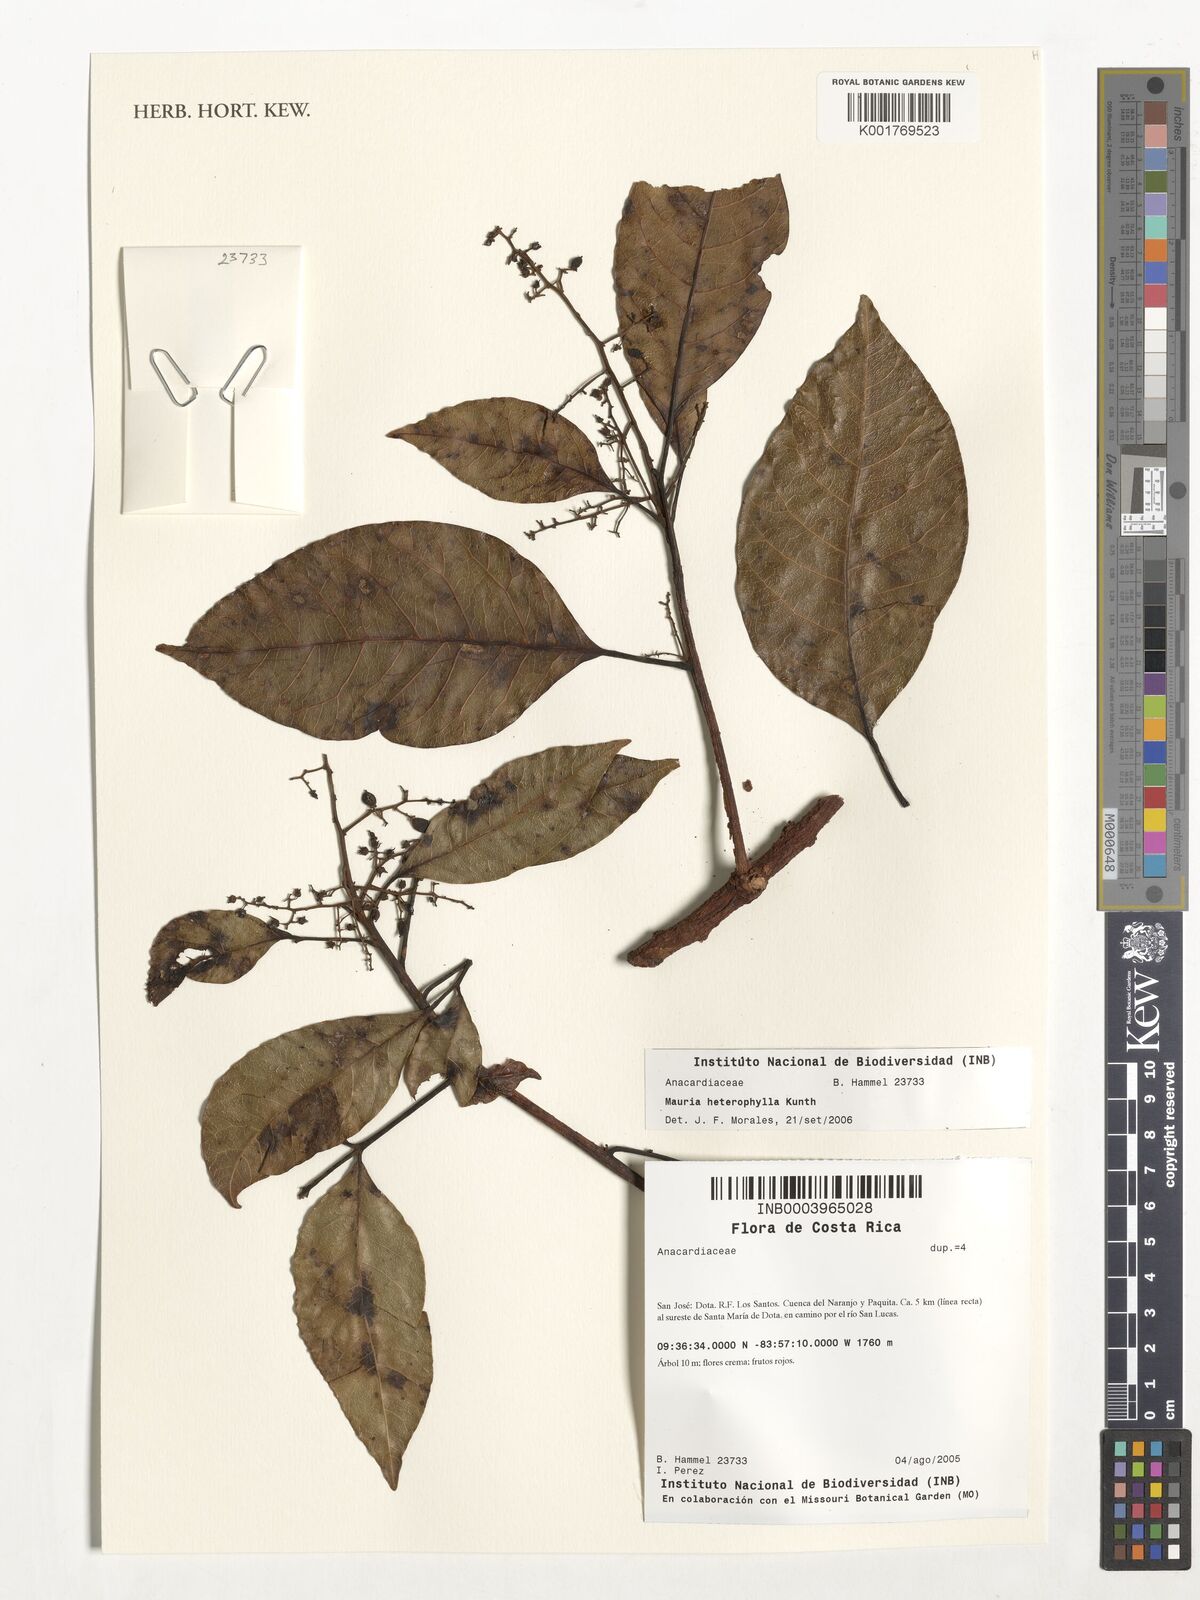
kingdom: Plantae
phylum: Tracheophyta
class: Magnoliopsida
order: Sapindales
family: Anacardiaceae
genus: Mauria
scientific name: Mauria heterophylla
